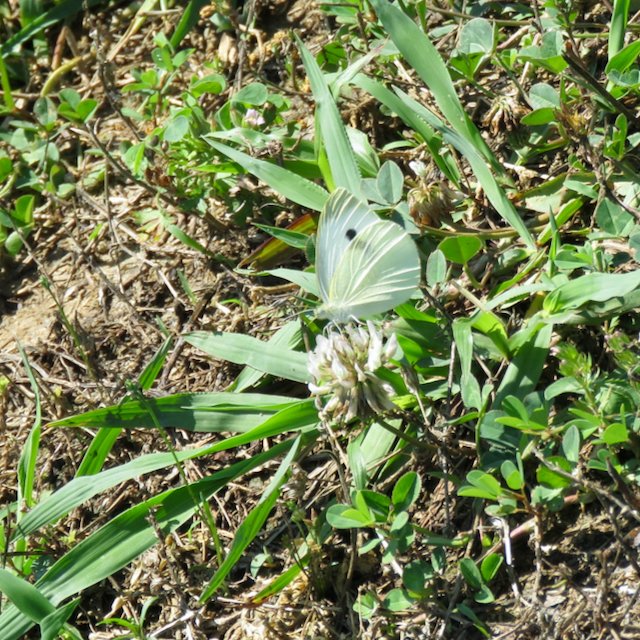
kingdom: Animalia
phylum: Arthropoda
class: Insecta
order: Lepidoptera
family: Pieridae
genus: Pieris
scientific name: Pieris rapae
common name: Cabbage White
